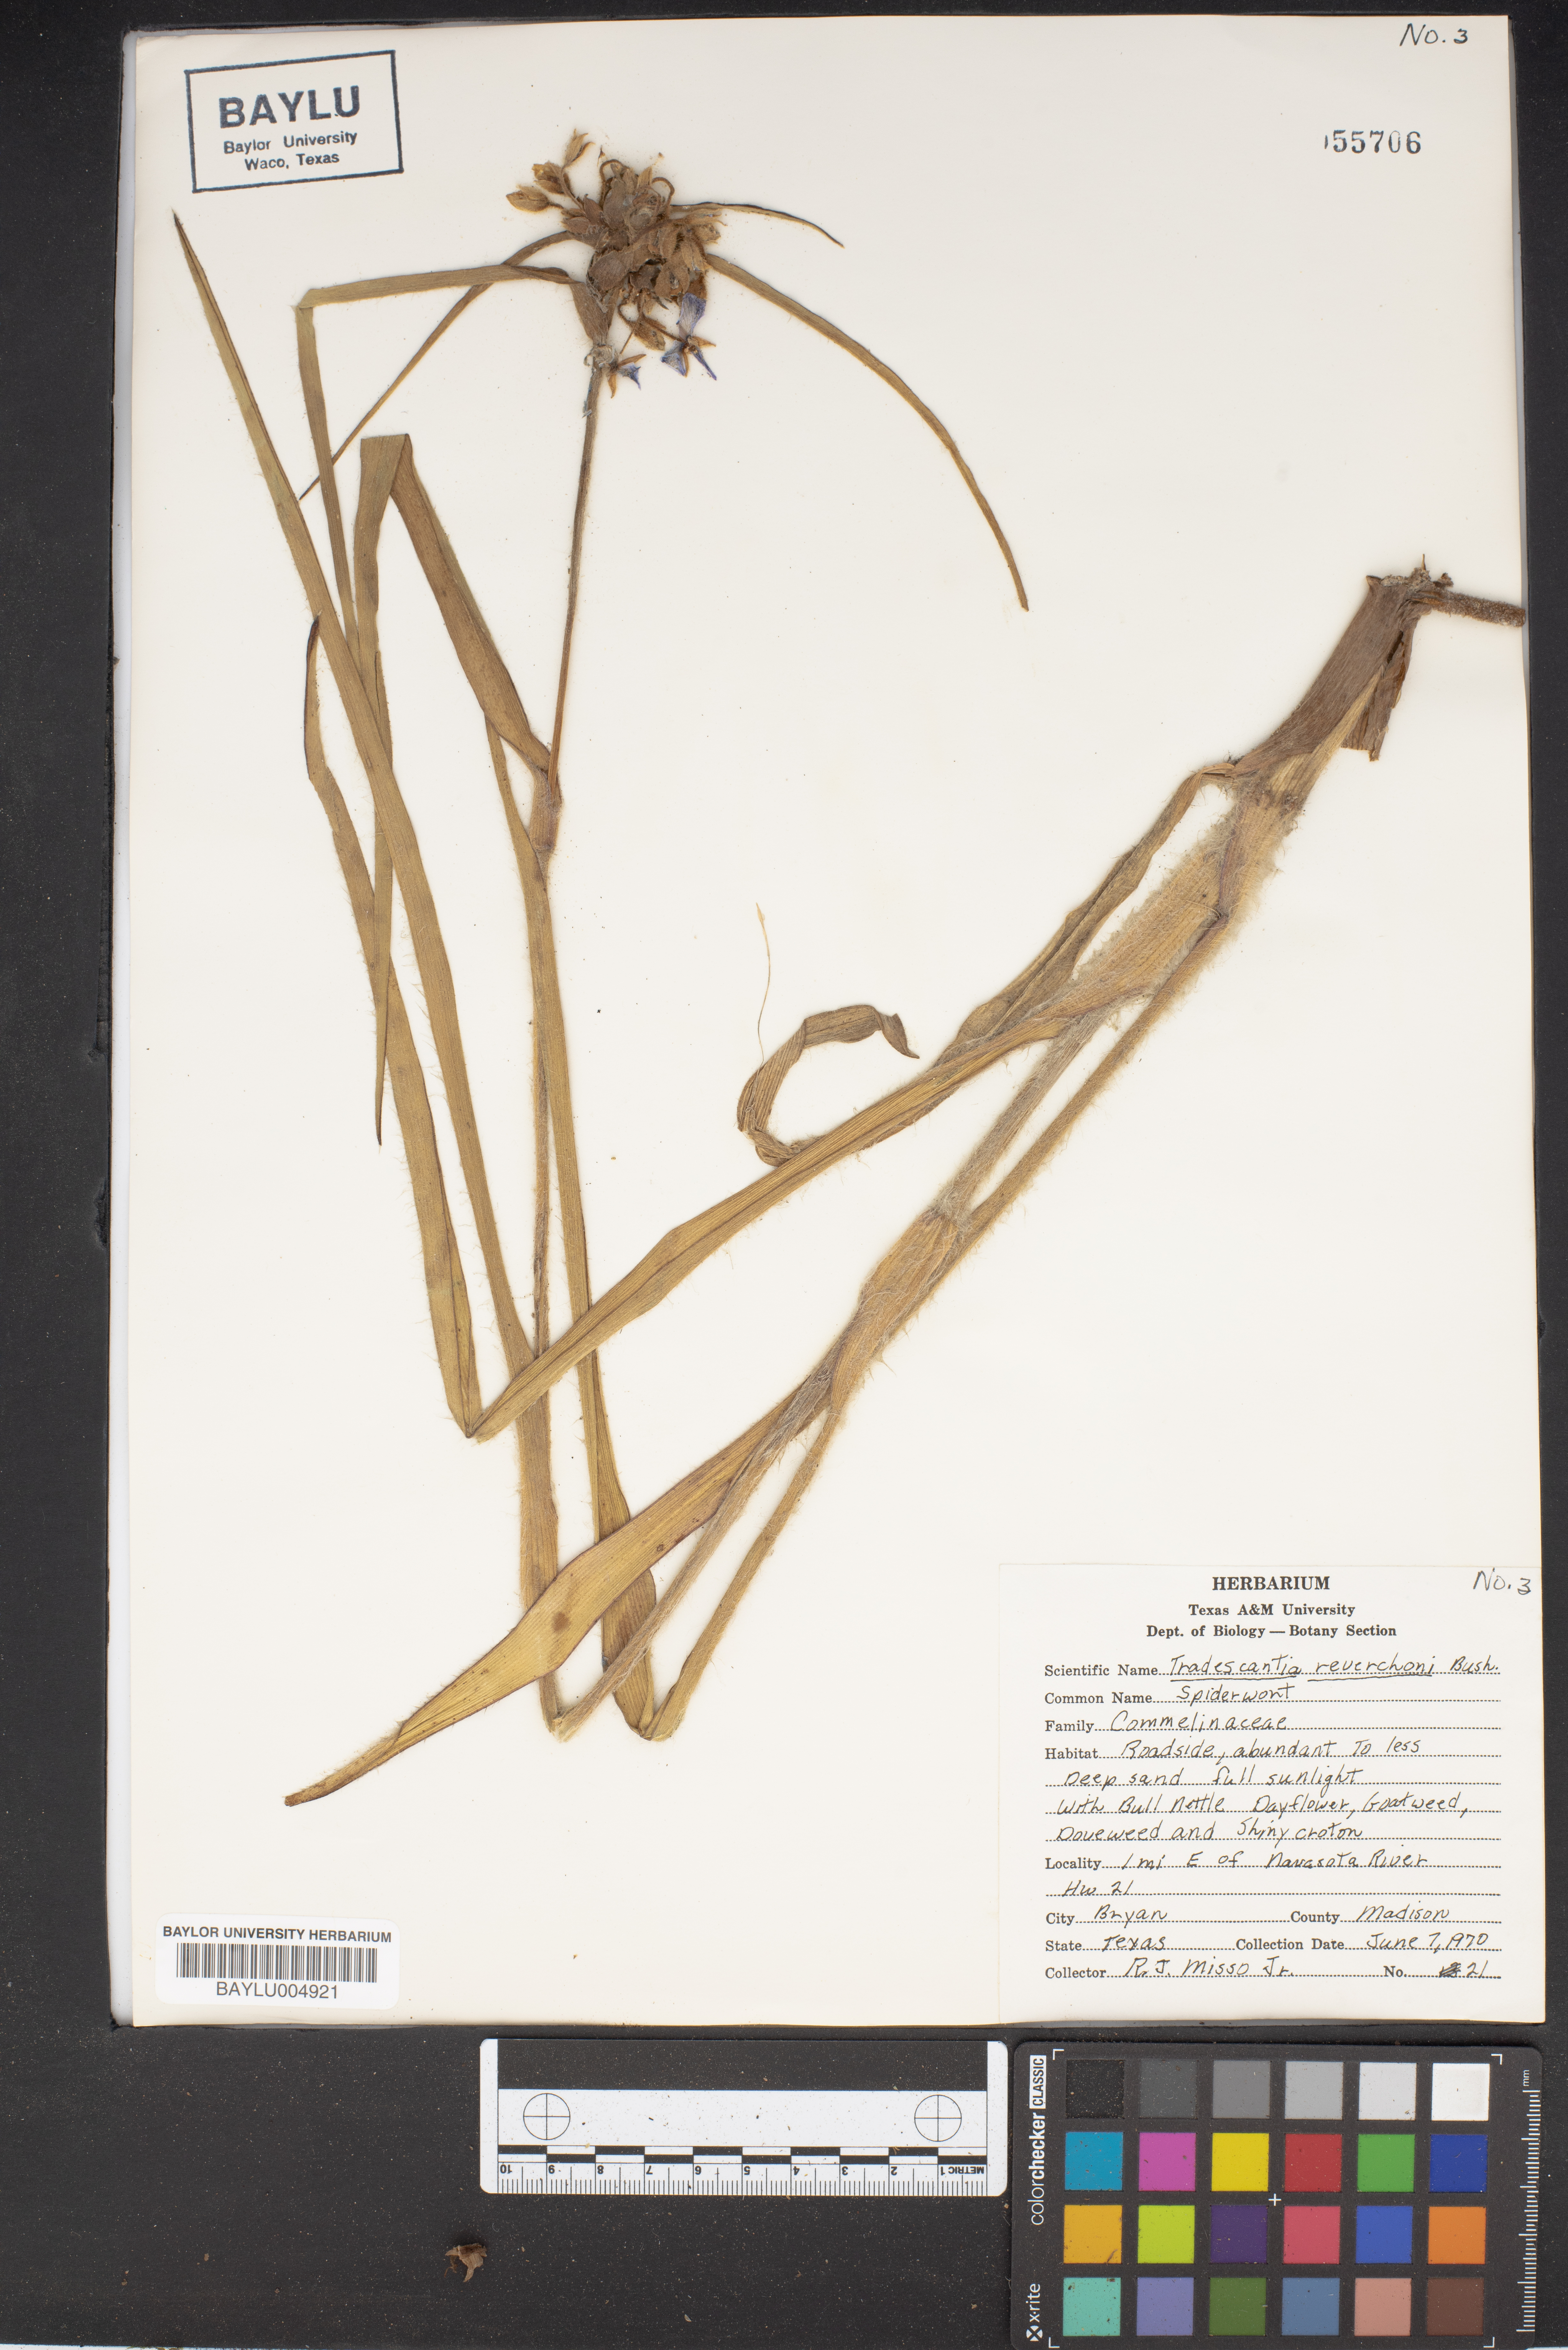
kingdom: Plantae
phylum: Tracheophyta
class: Liliopsida
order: Commelinales
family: Commelinaceae
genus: Tradescantia
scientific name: Tradescantia reverchonii
